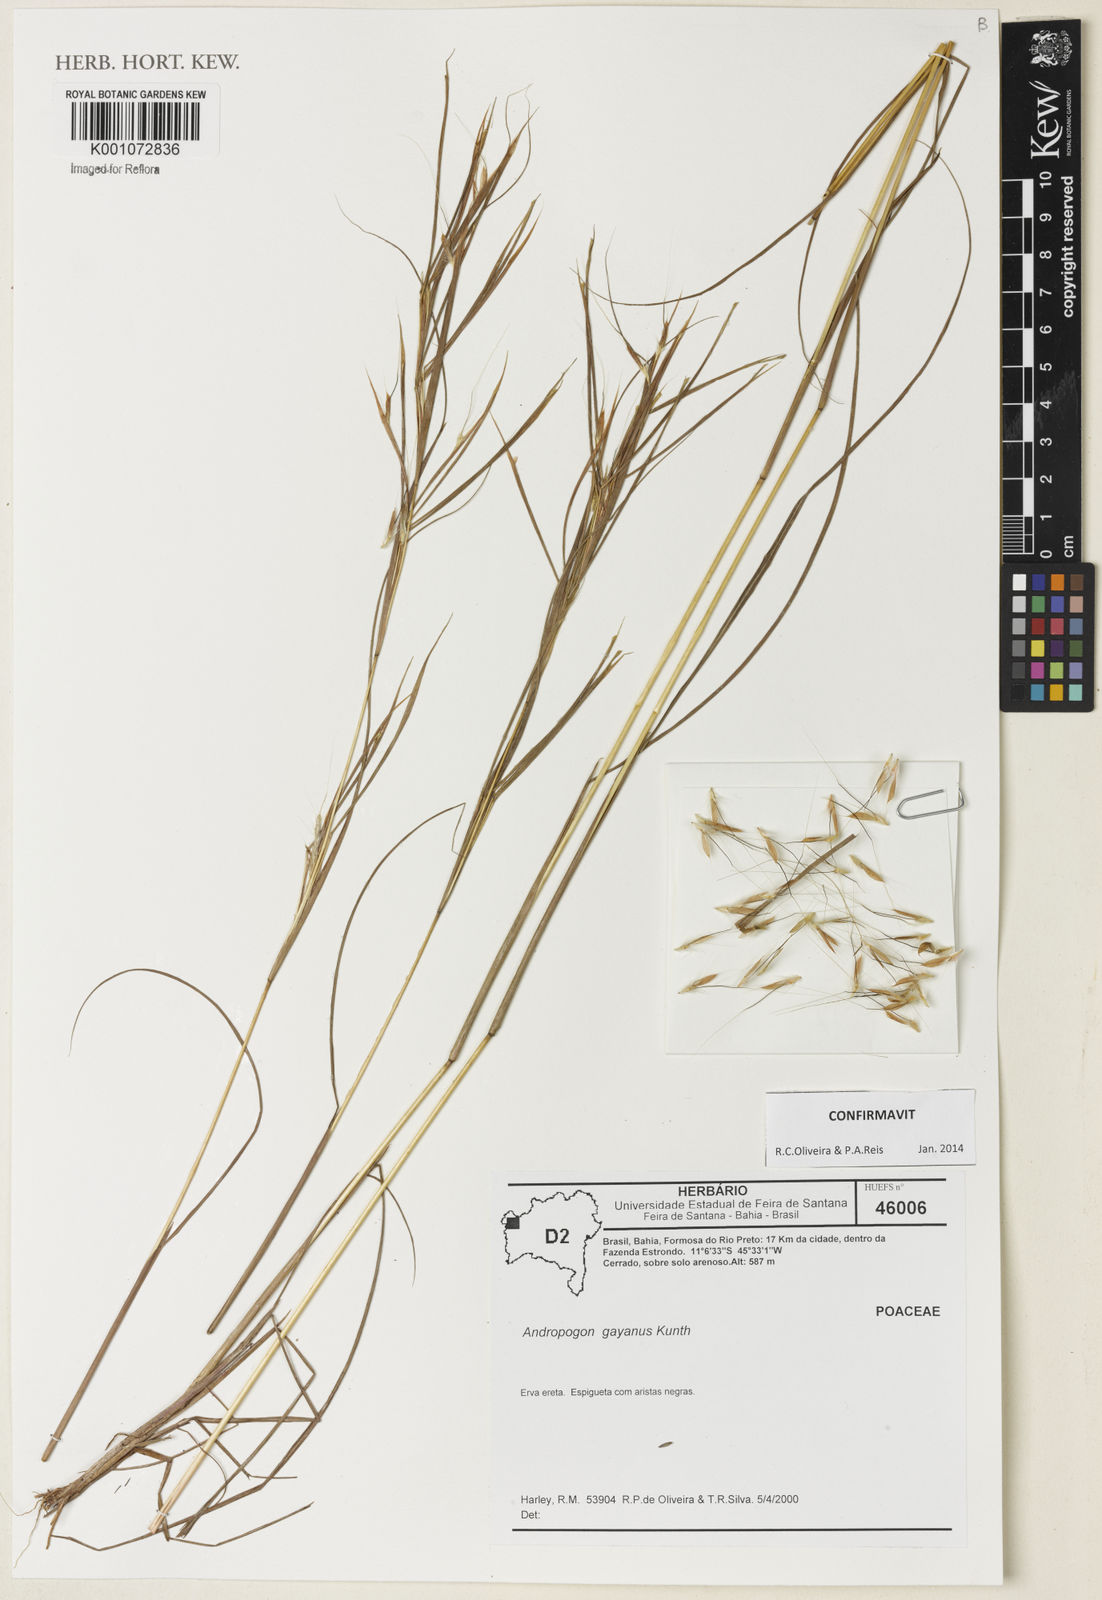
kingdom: Plantae
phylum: Tracheophyta
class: Liliopsida
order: Poales
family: Poaceae
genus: Andropogon
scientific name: Andropogon gayanus
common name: Tambuki grass
